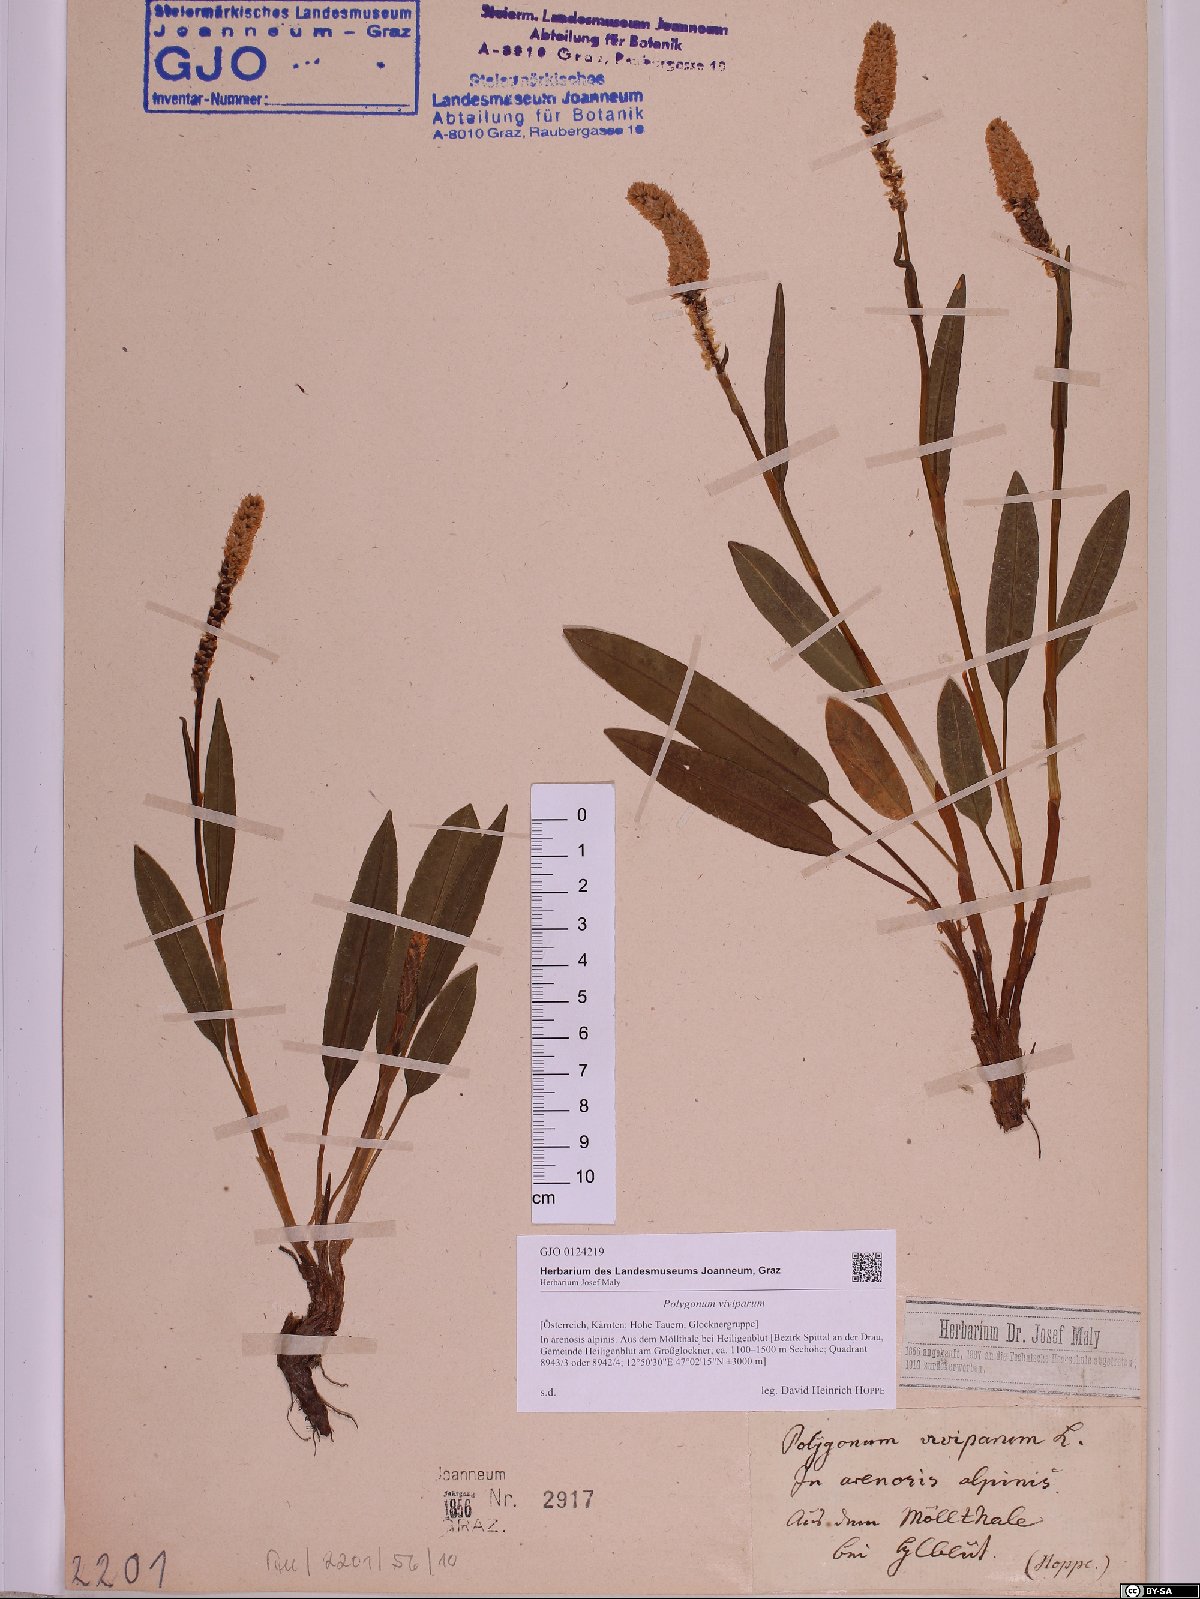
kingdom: Plantae
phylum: Tracheophyta
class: Magnoliopsida
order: Caryophyllales
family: Polygonaceae
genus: Bistorta
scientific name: Bistorta vivipara
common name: Alpine bistort
